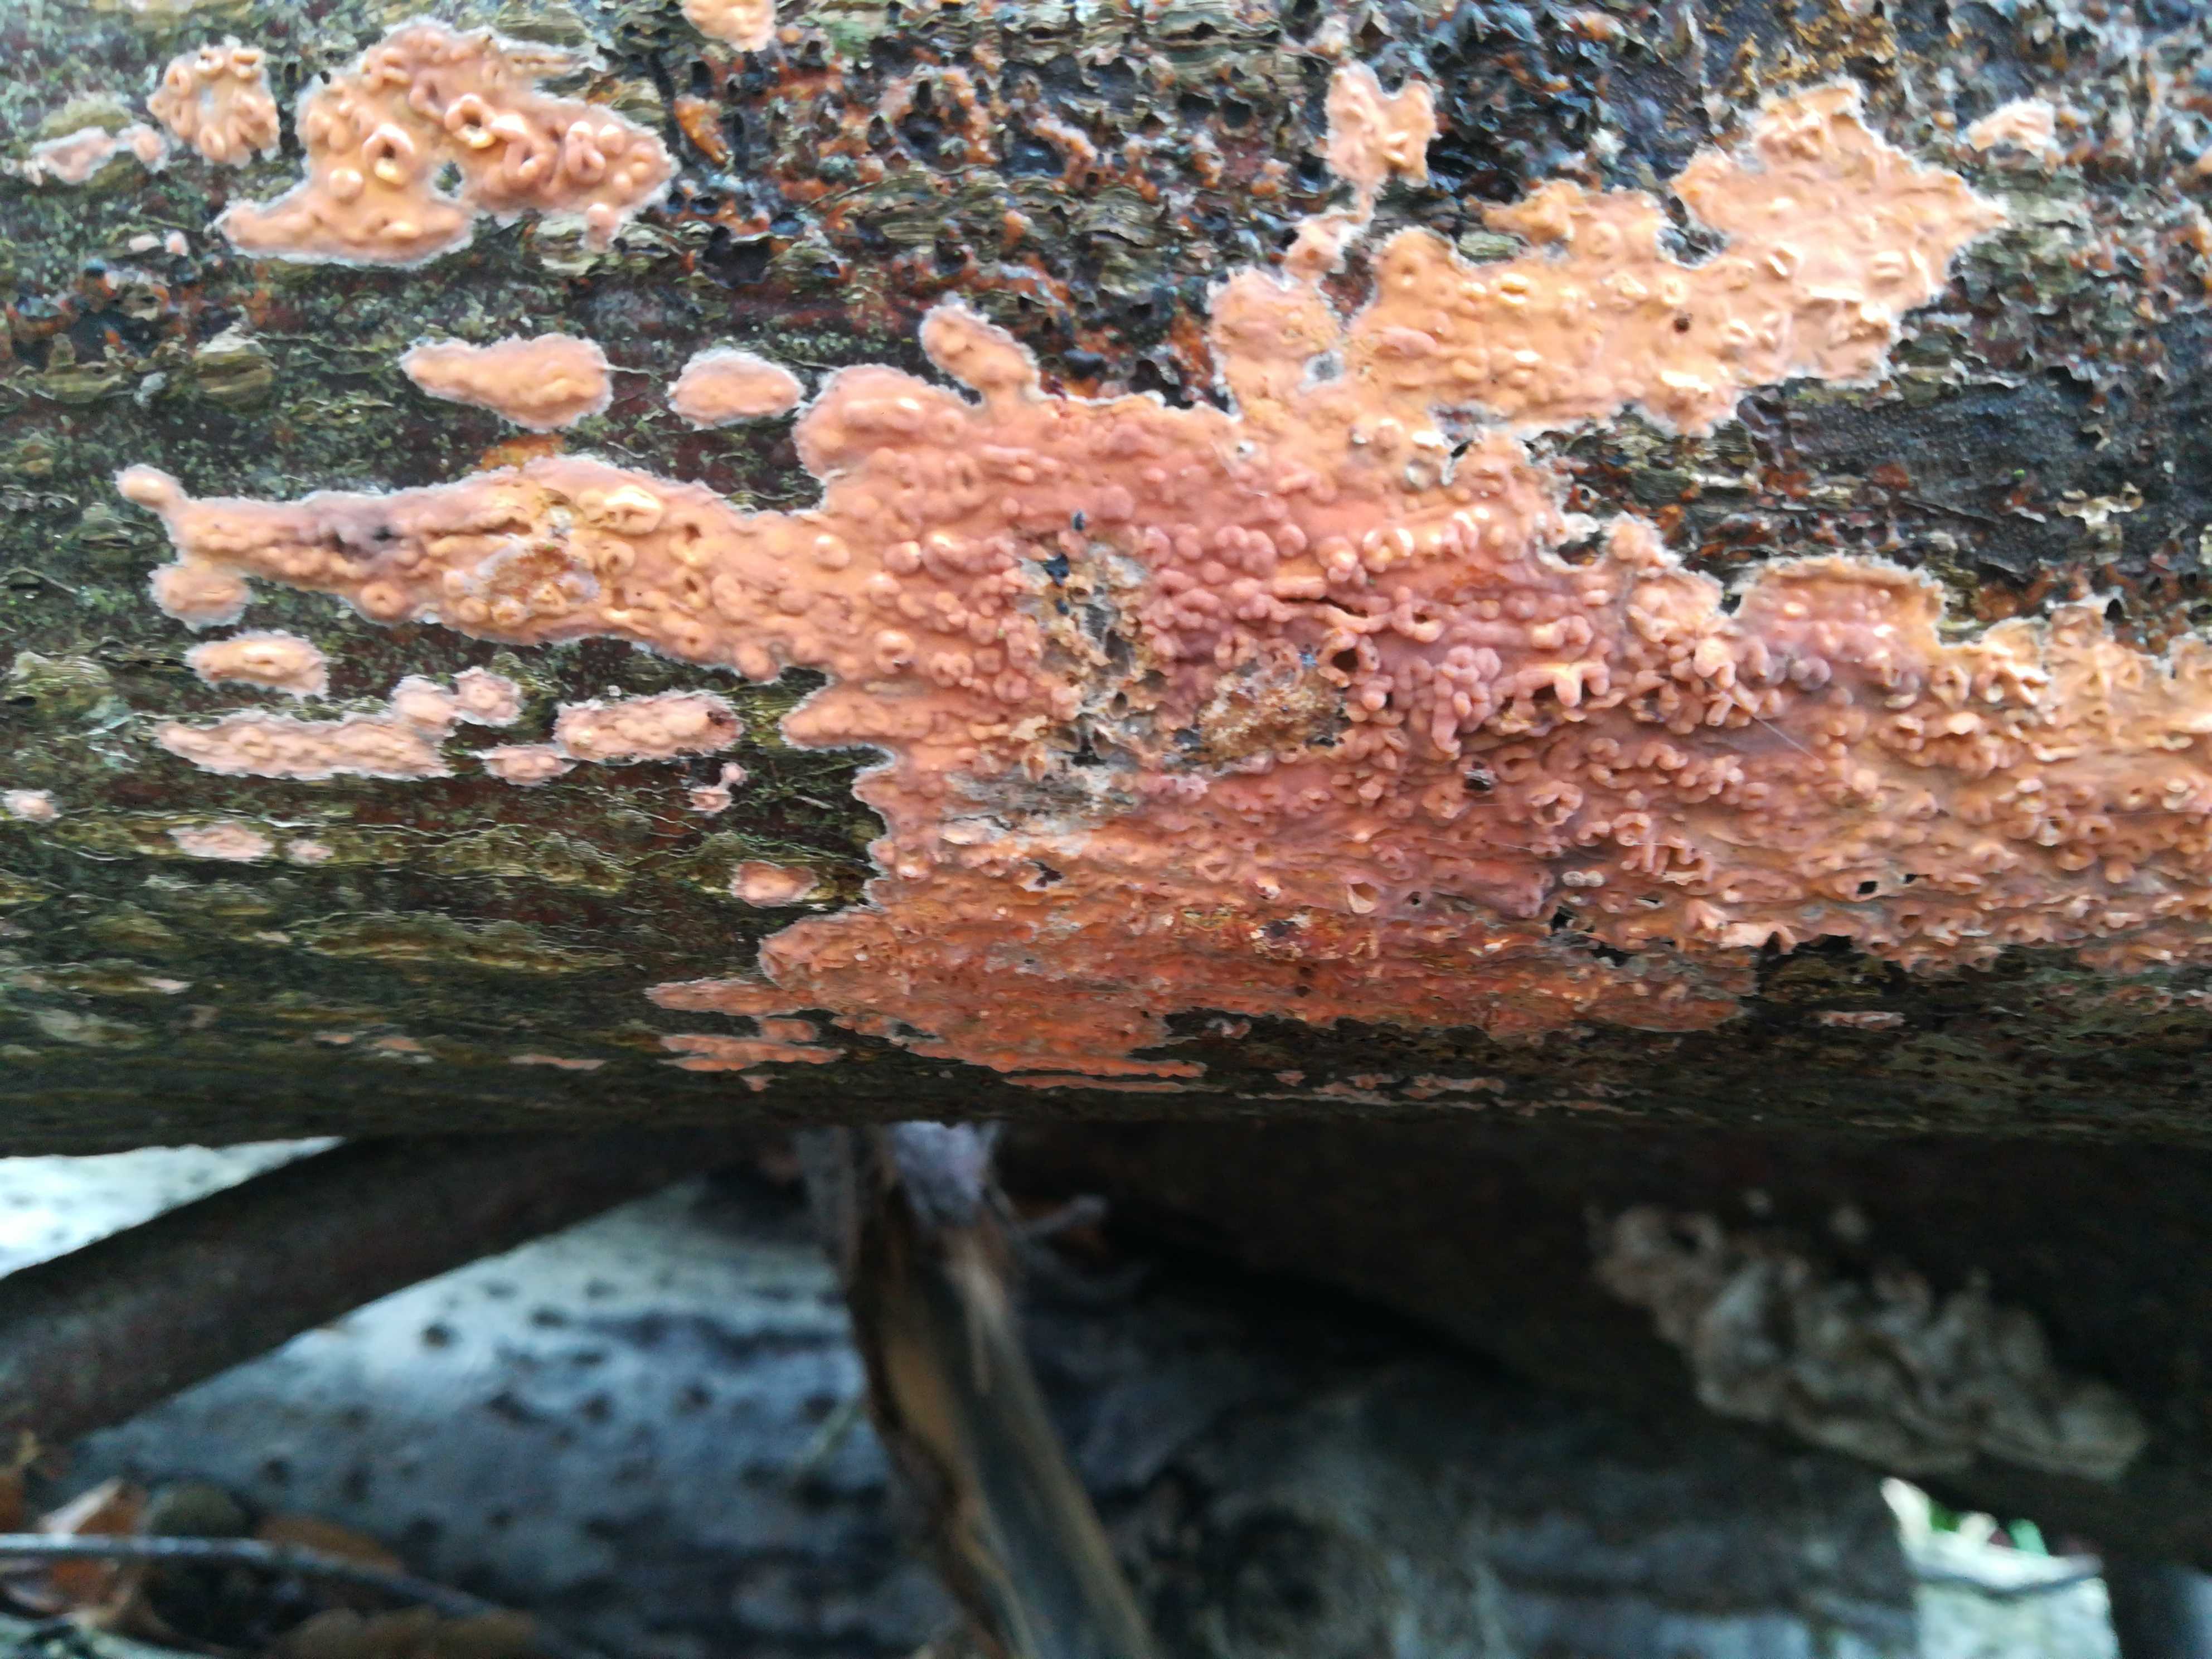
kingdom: Fungi
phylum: Basidiomycota
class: Agaricomycetes
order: Russulales
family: Peniophoraceae
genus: Peniophora
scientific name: Peniophora incarnata
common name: laksefarvet voksskind
